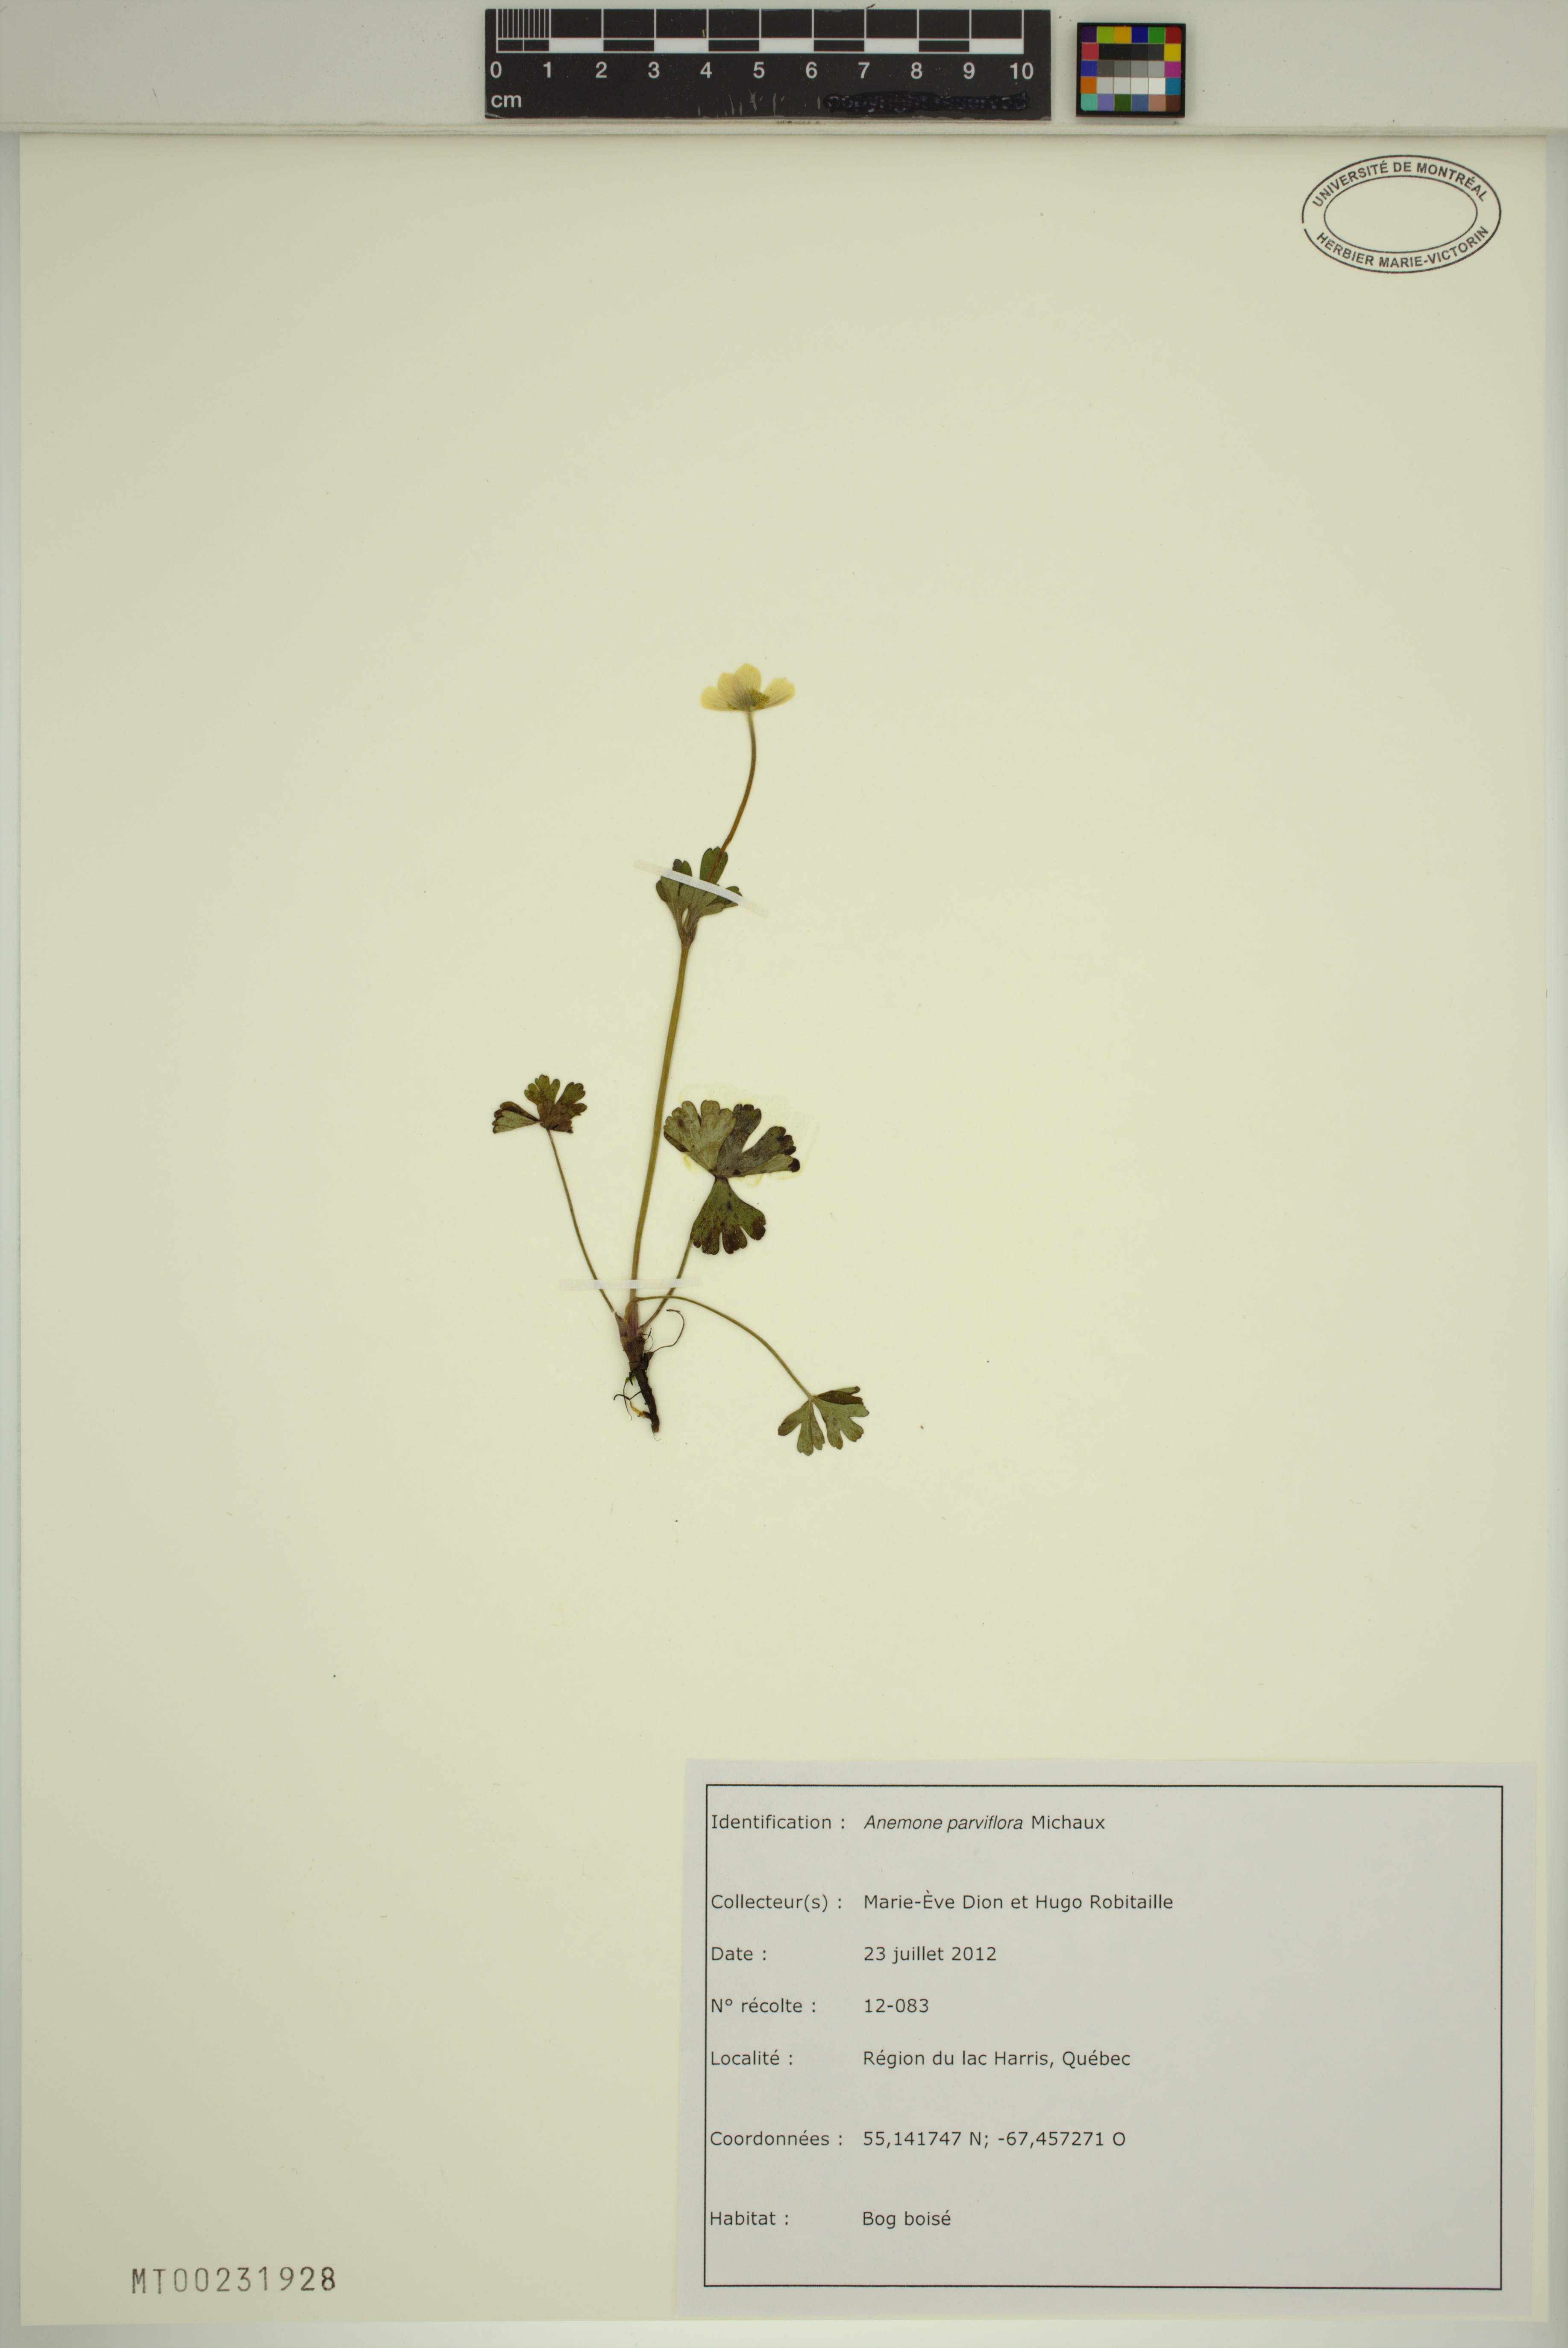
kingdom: Plantae
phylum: Tracheophyta
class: Magnoliopsida
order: Ranunculales
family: Ranunculaceae
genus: Anemone
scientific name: Anemone parviflora
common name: Northern anemone
